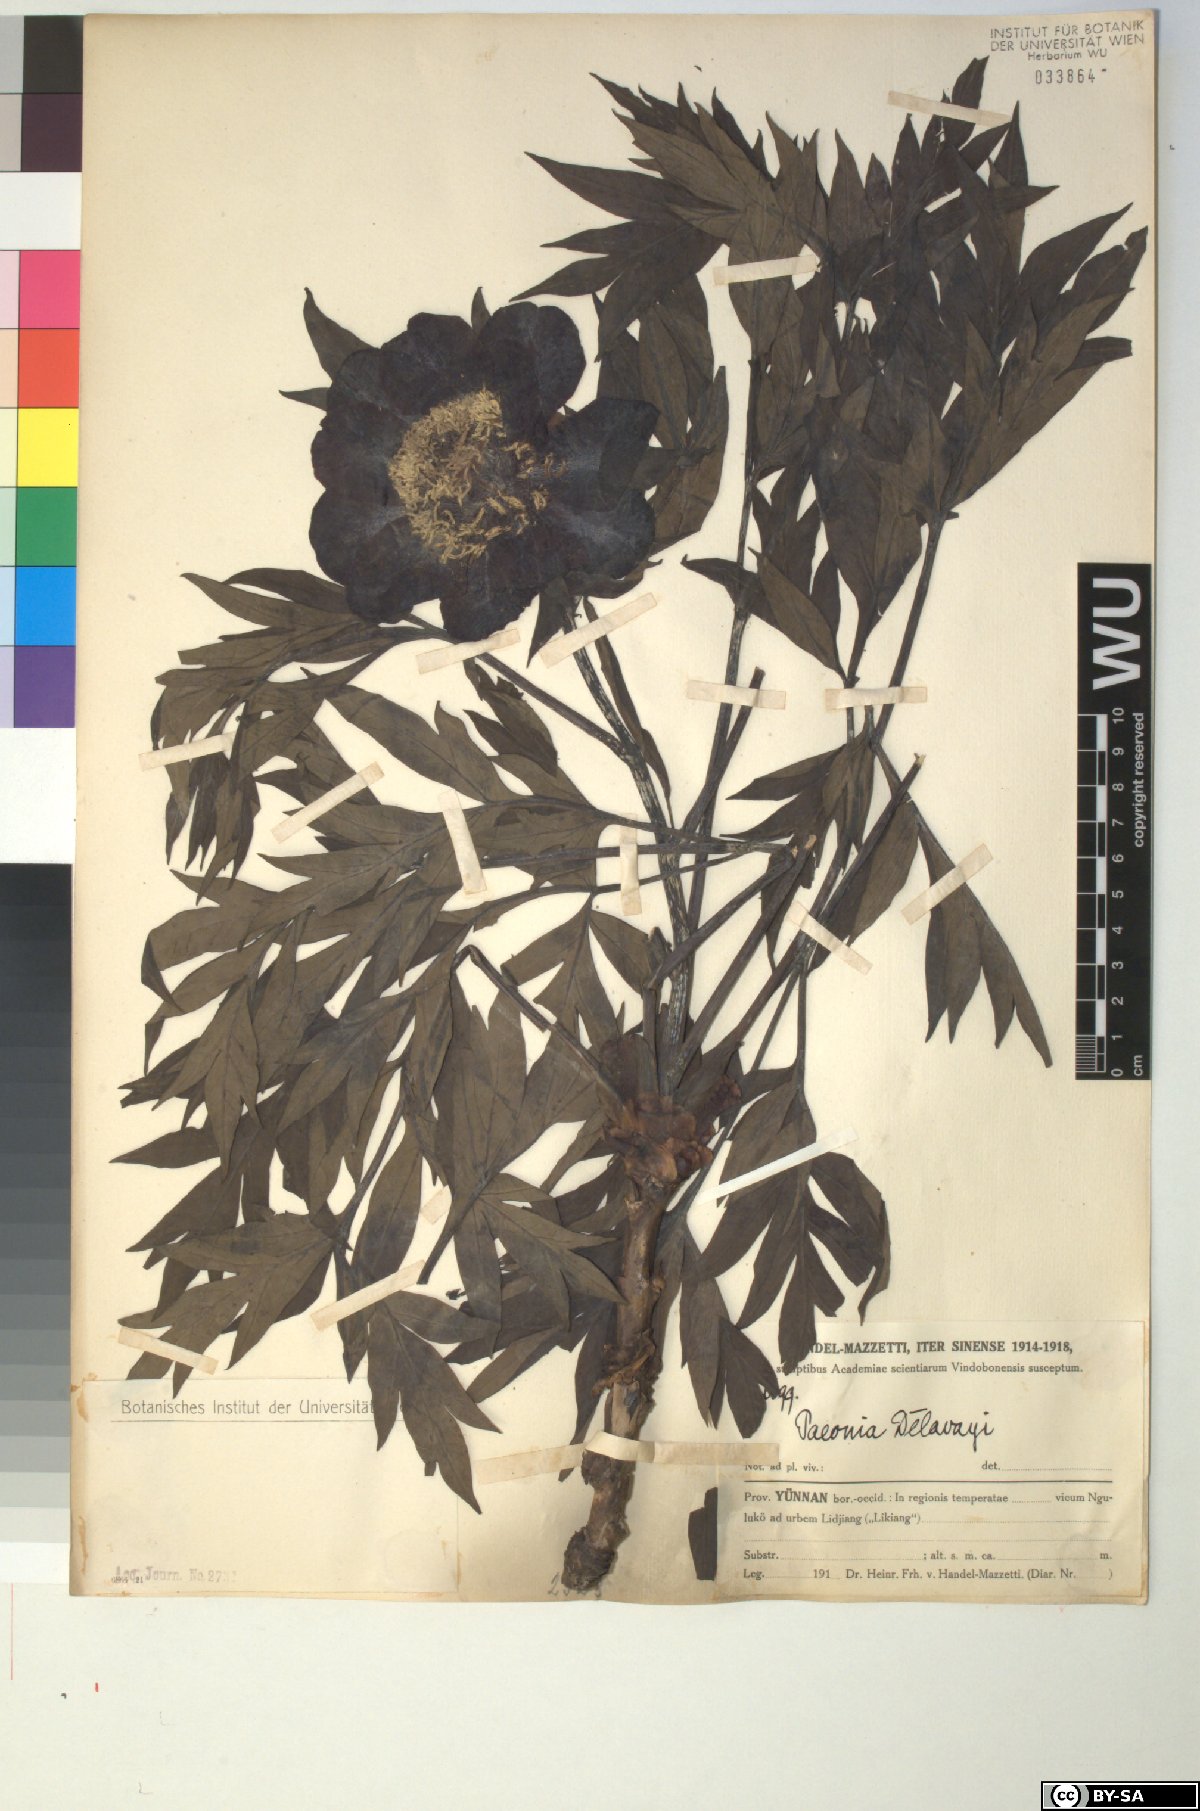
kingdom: Plantae
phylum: Tracheophyta
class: Magnoliopsida
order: Saxifragales
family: Paeoniaceae
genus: Paeonia
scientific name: Paeonia delavayi
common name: Dian mu dan
